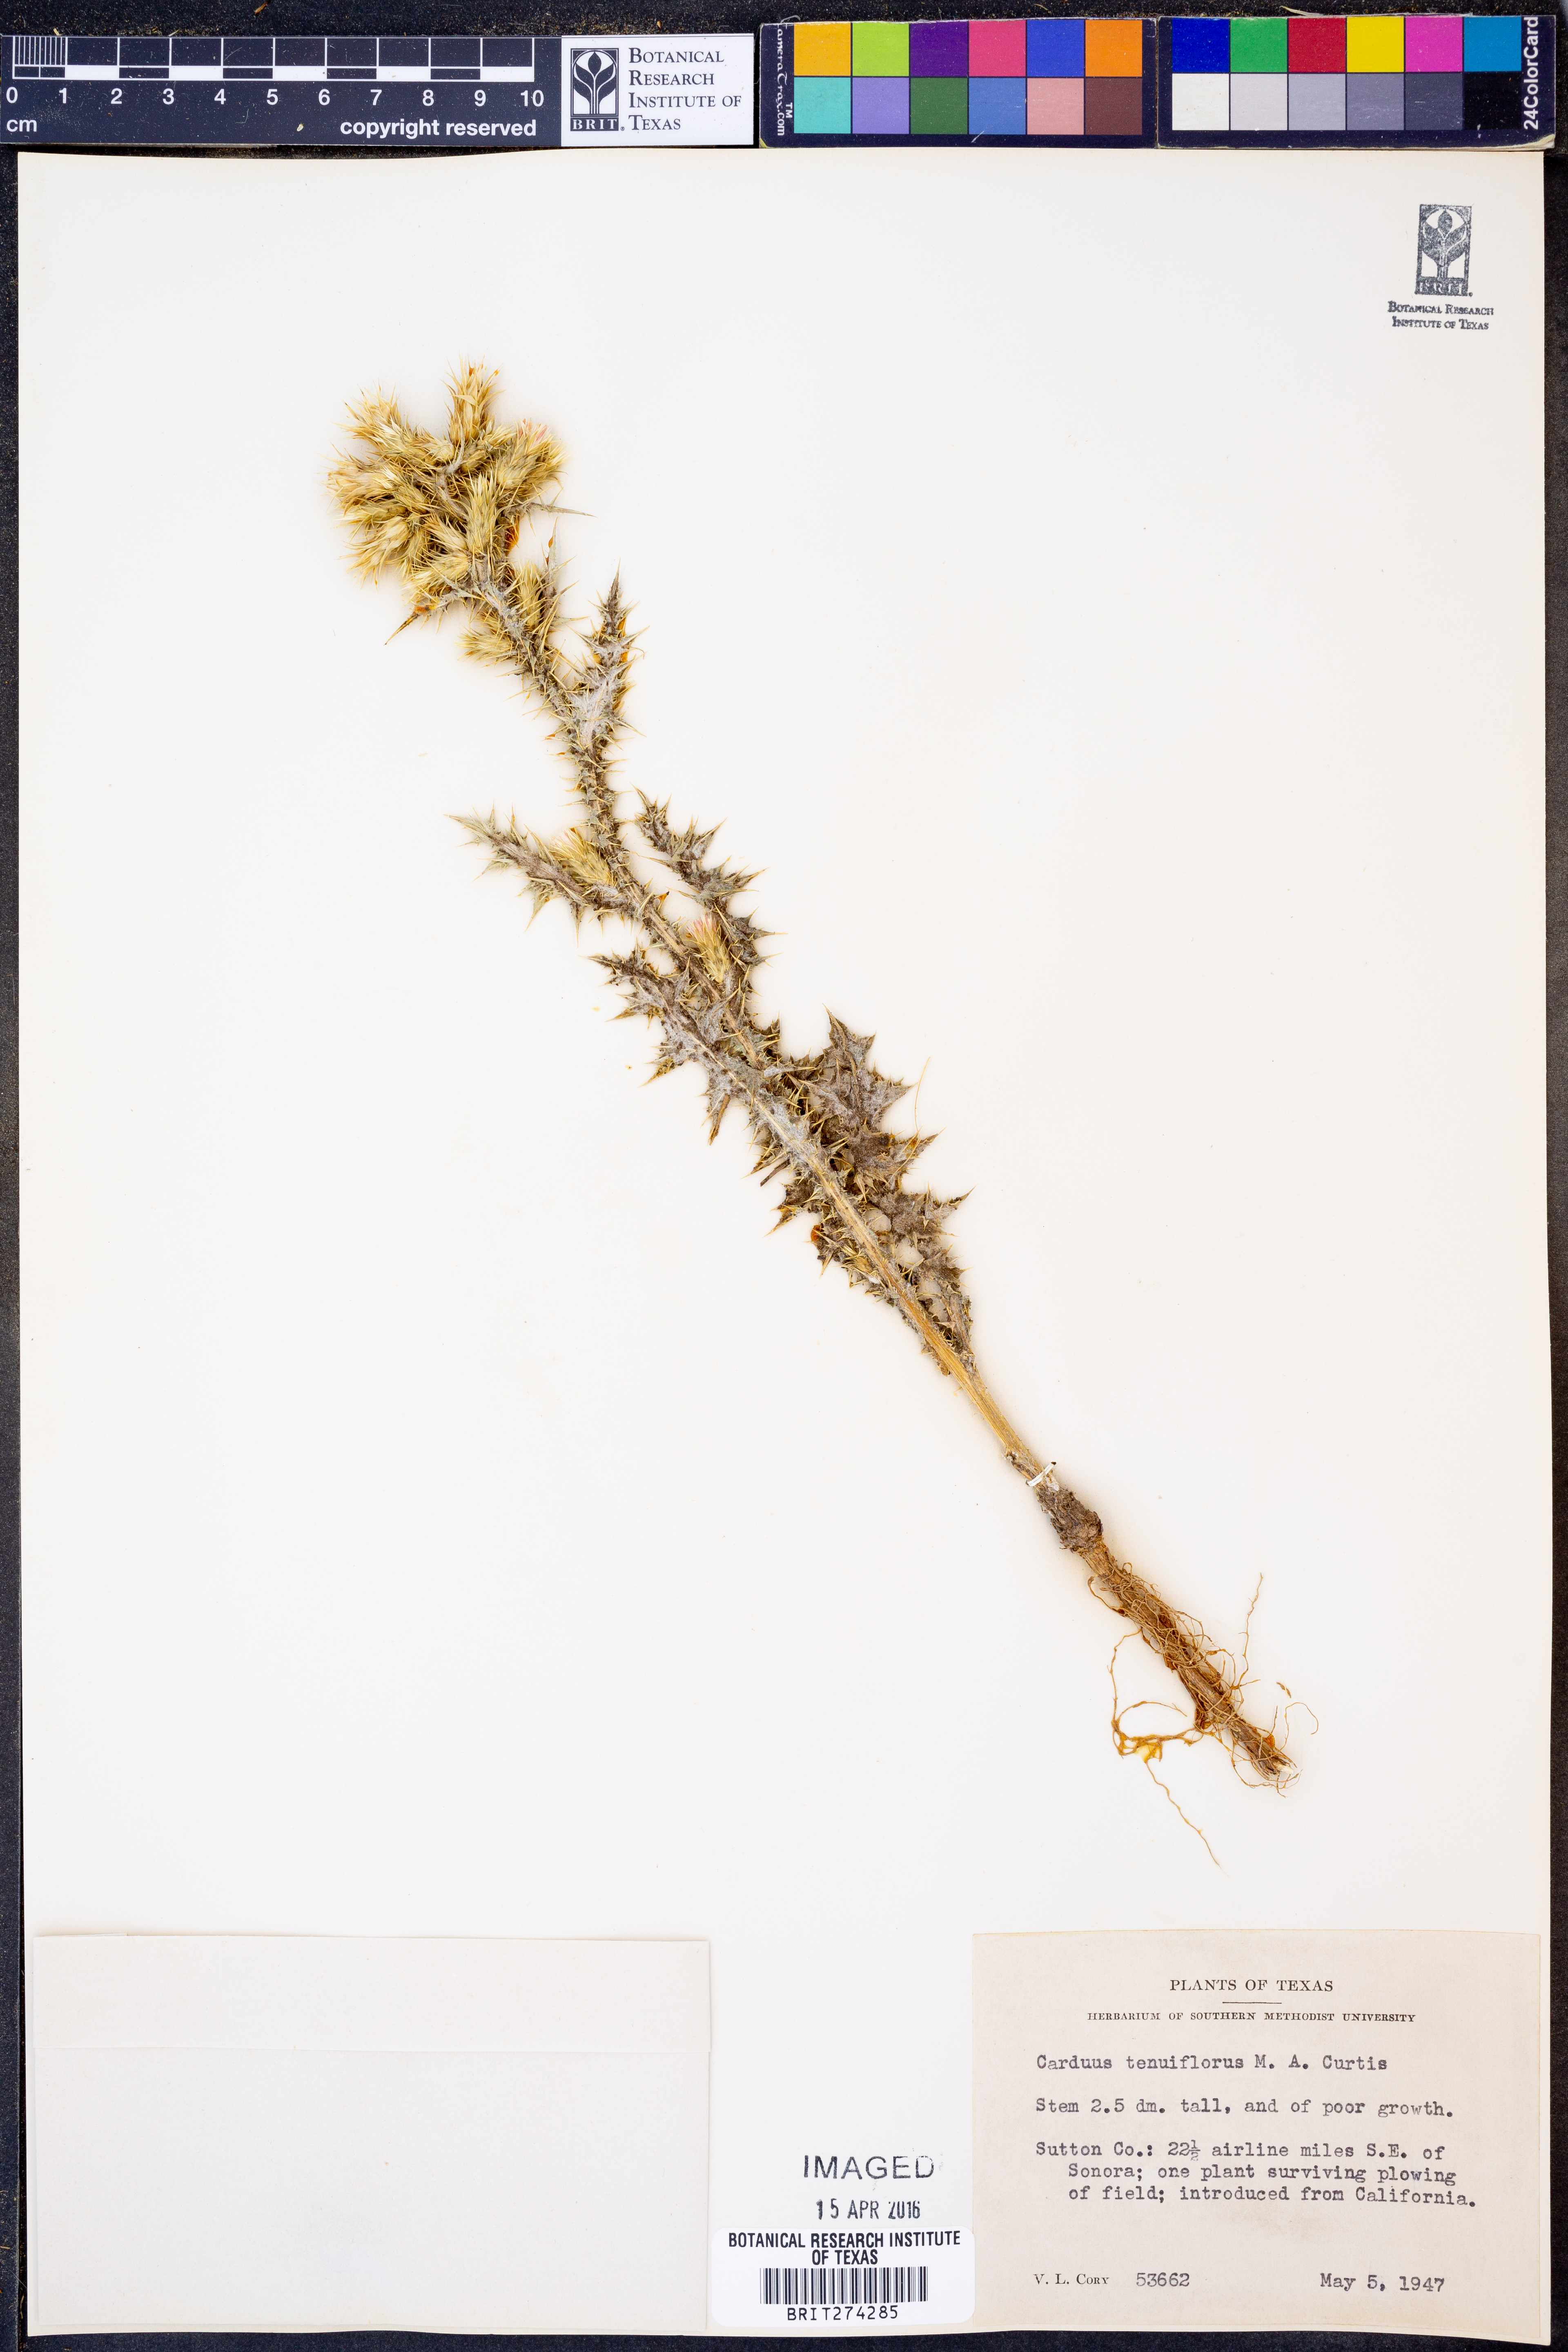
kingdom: Plantae
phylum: Tracheophyta
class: Magnoliopsida
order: Asterales
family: Asteraceae
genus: Carduus
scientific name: Carduus tenuiflorus
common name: Slender thistle
